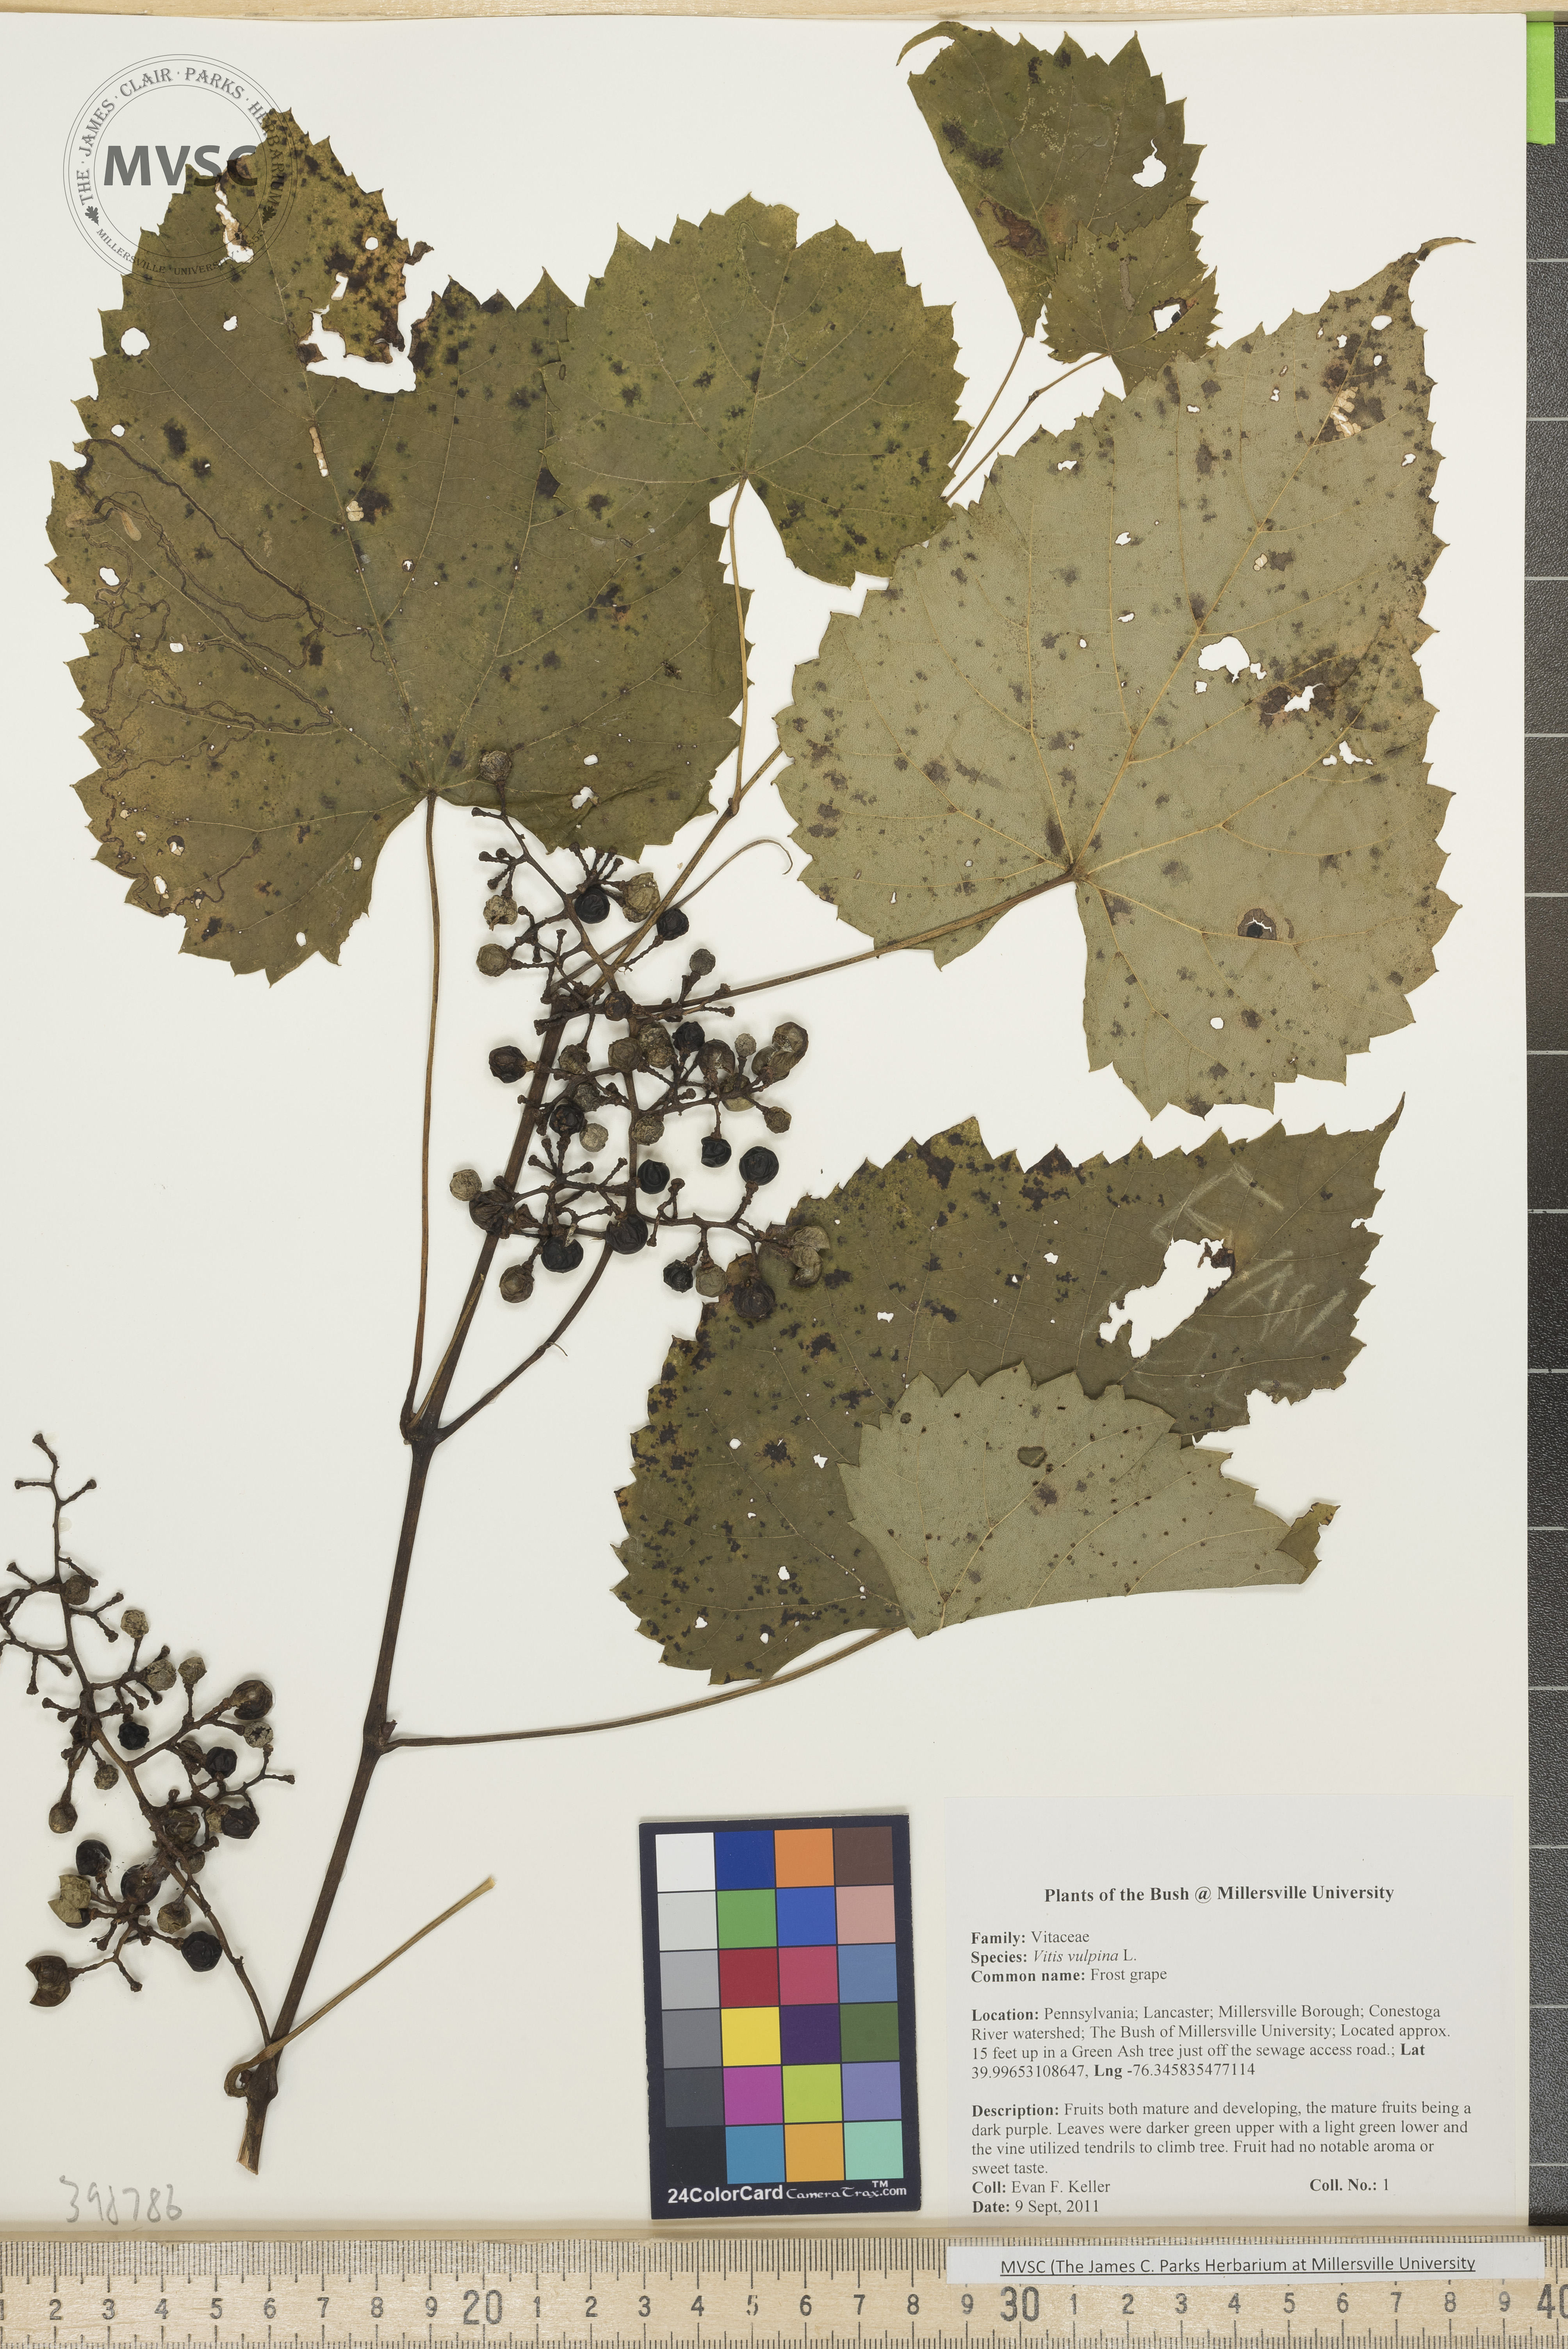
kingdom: Plantae
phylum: Tracheophyta
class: Magnoliopsida
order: Vitales
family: Vitaceae
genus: Vitis
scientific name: Vitis vulpina
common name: Frost grape
